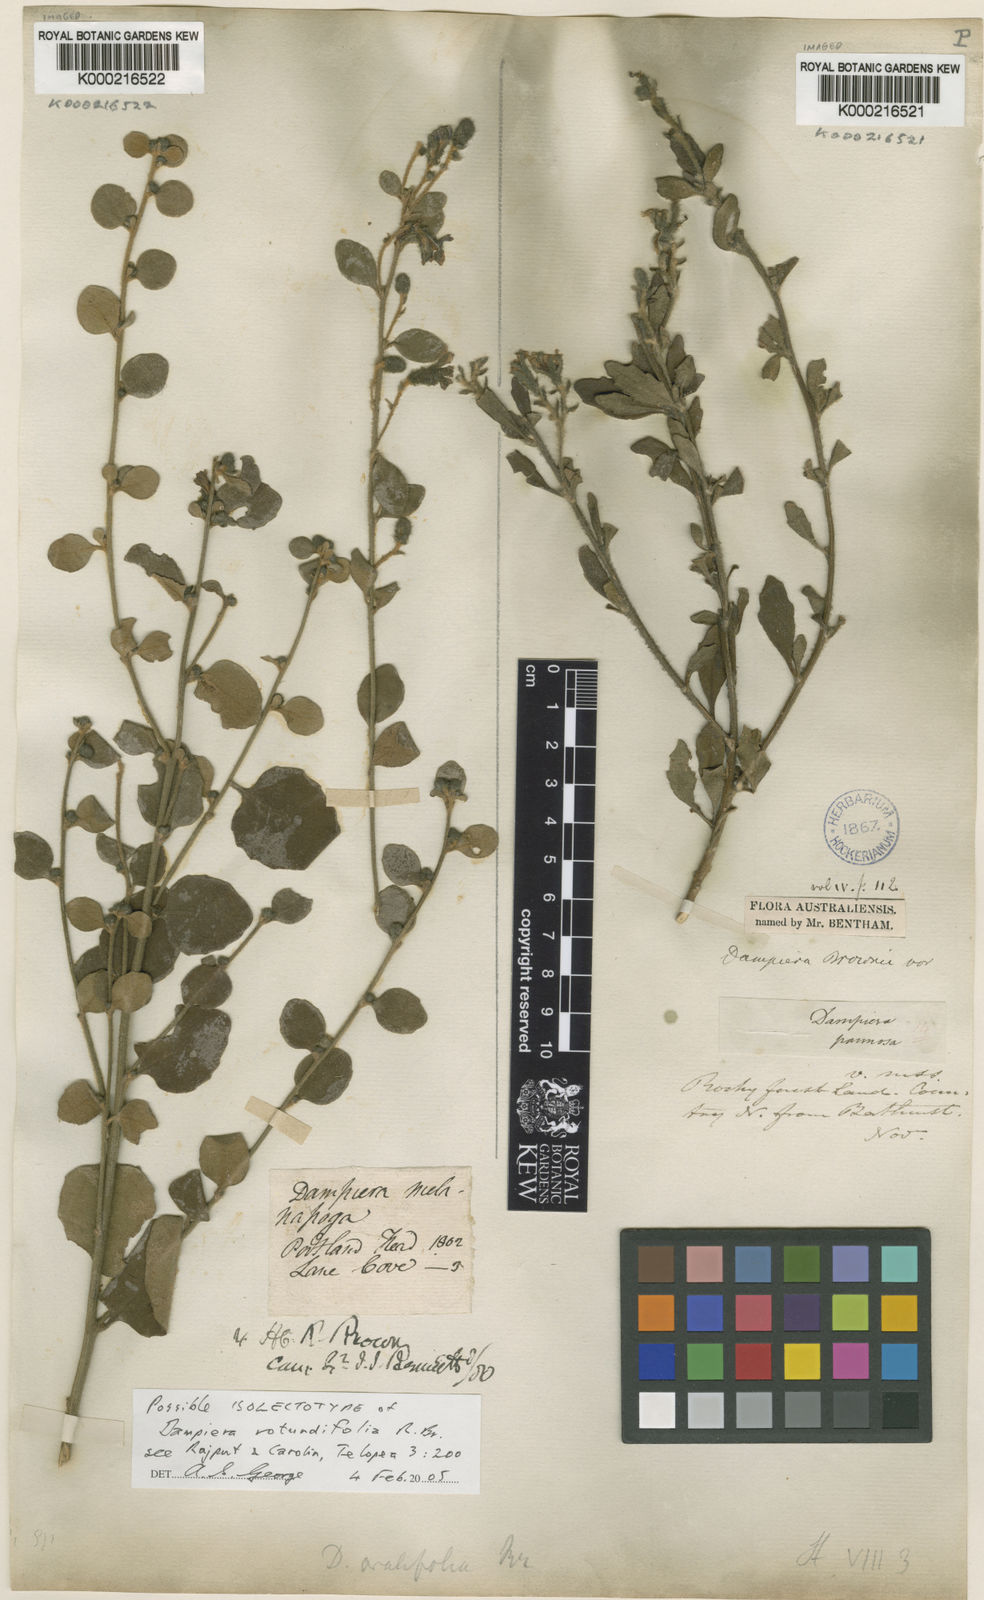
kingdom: Plantae
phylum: Tracheophyta
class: Magnoliopsida
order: Asterales
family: Goodeniaceae
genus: Dampiera
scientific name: Dampiera purpurea
